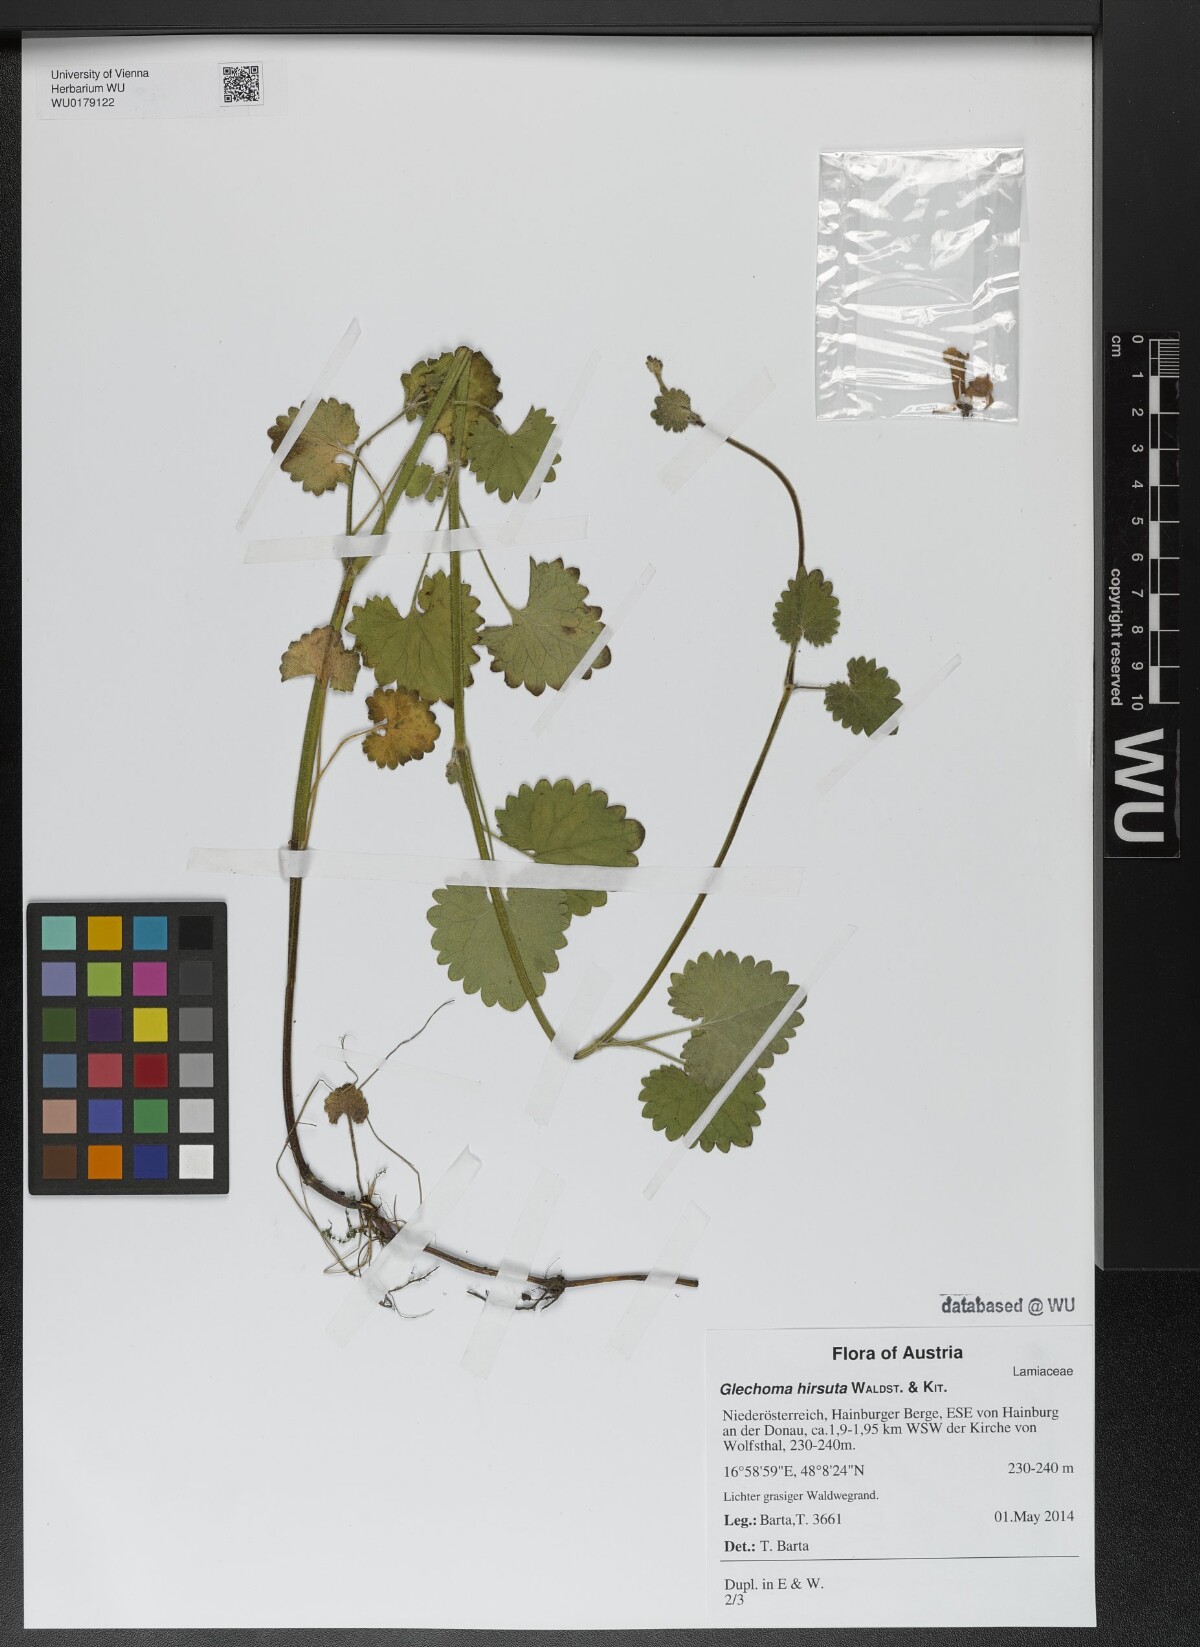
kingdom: Plantae
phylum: Tracheophyta
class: Magnoliopsida
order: Lamiales
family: Lamiaceae
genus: Glechoma
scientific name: Glechoma hirsuta
